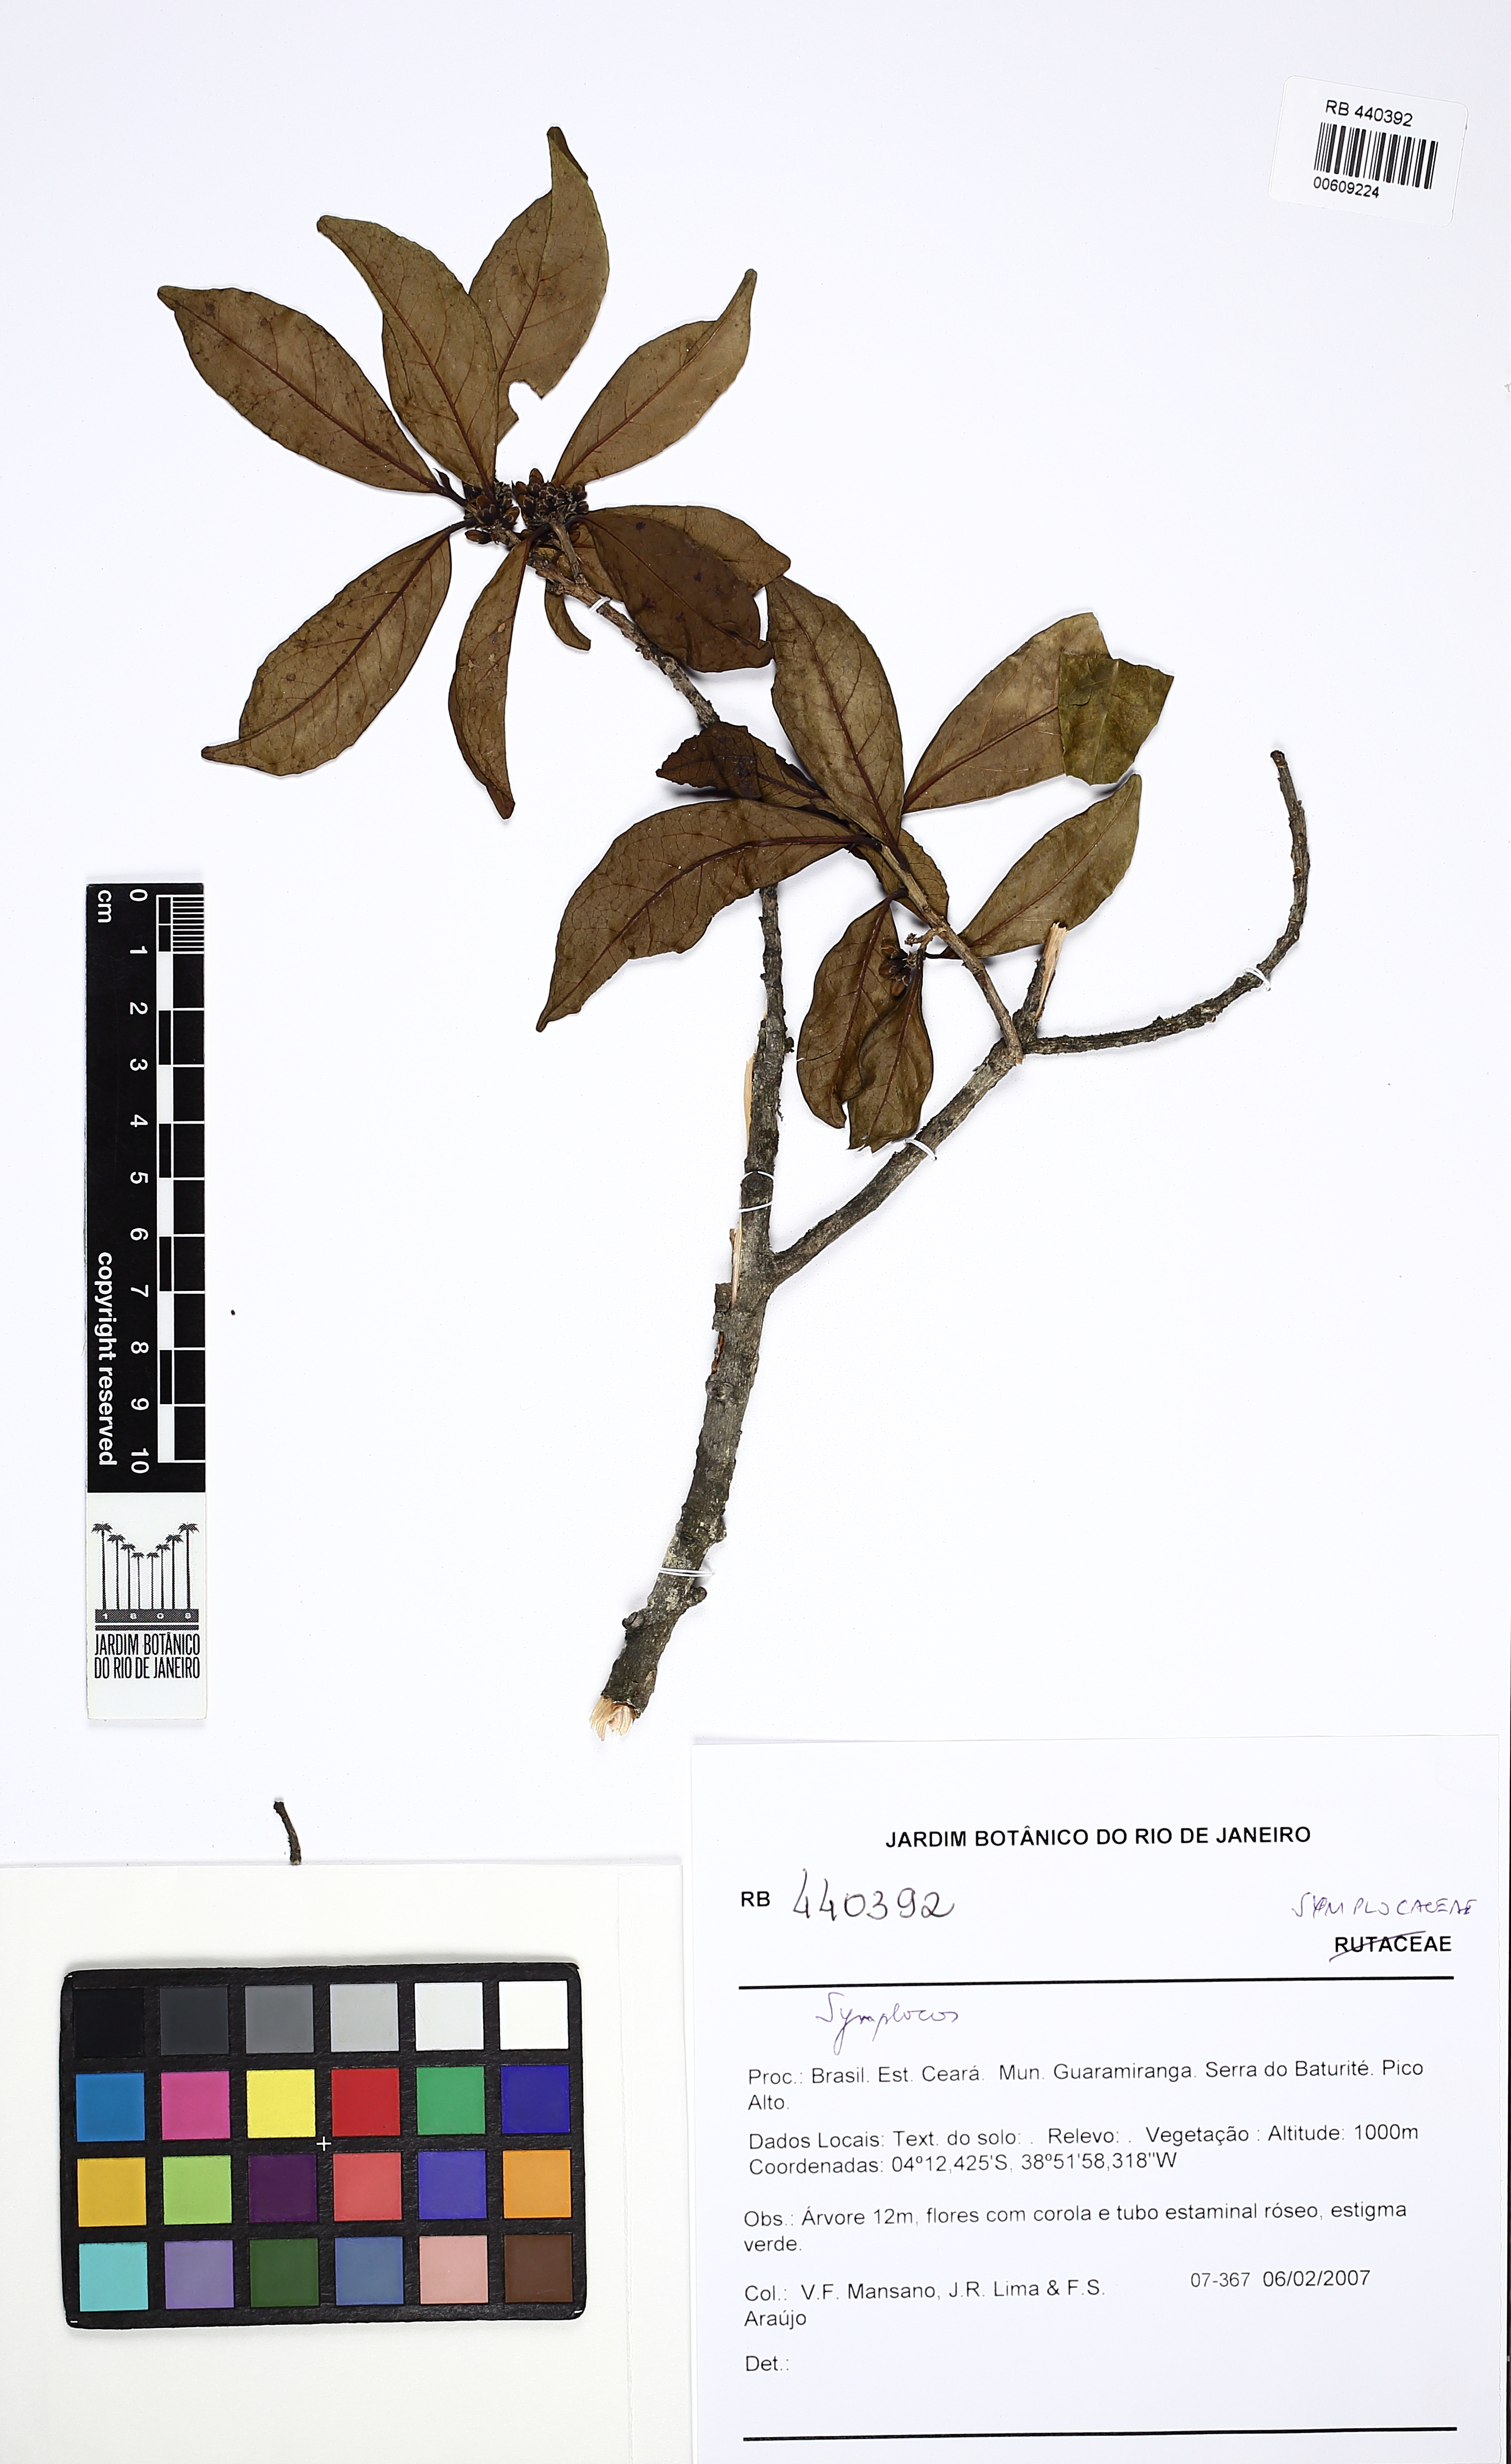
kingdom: Plantae
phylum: Tracheophyta
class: Magnoliopsida
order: Ericales
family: Symplocaceae
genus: Symplocos
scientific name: Symplocos
